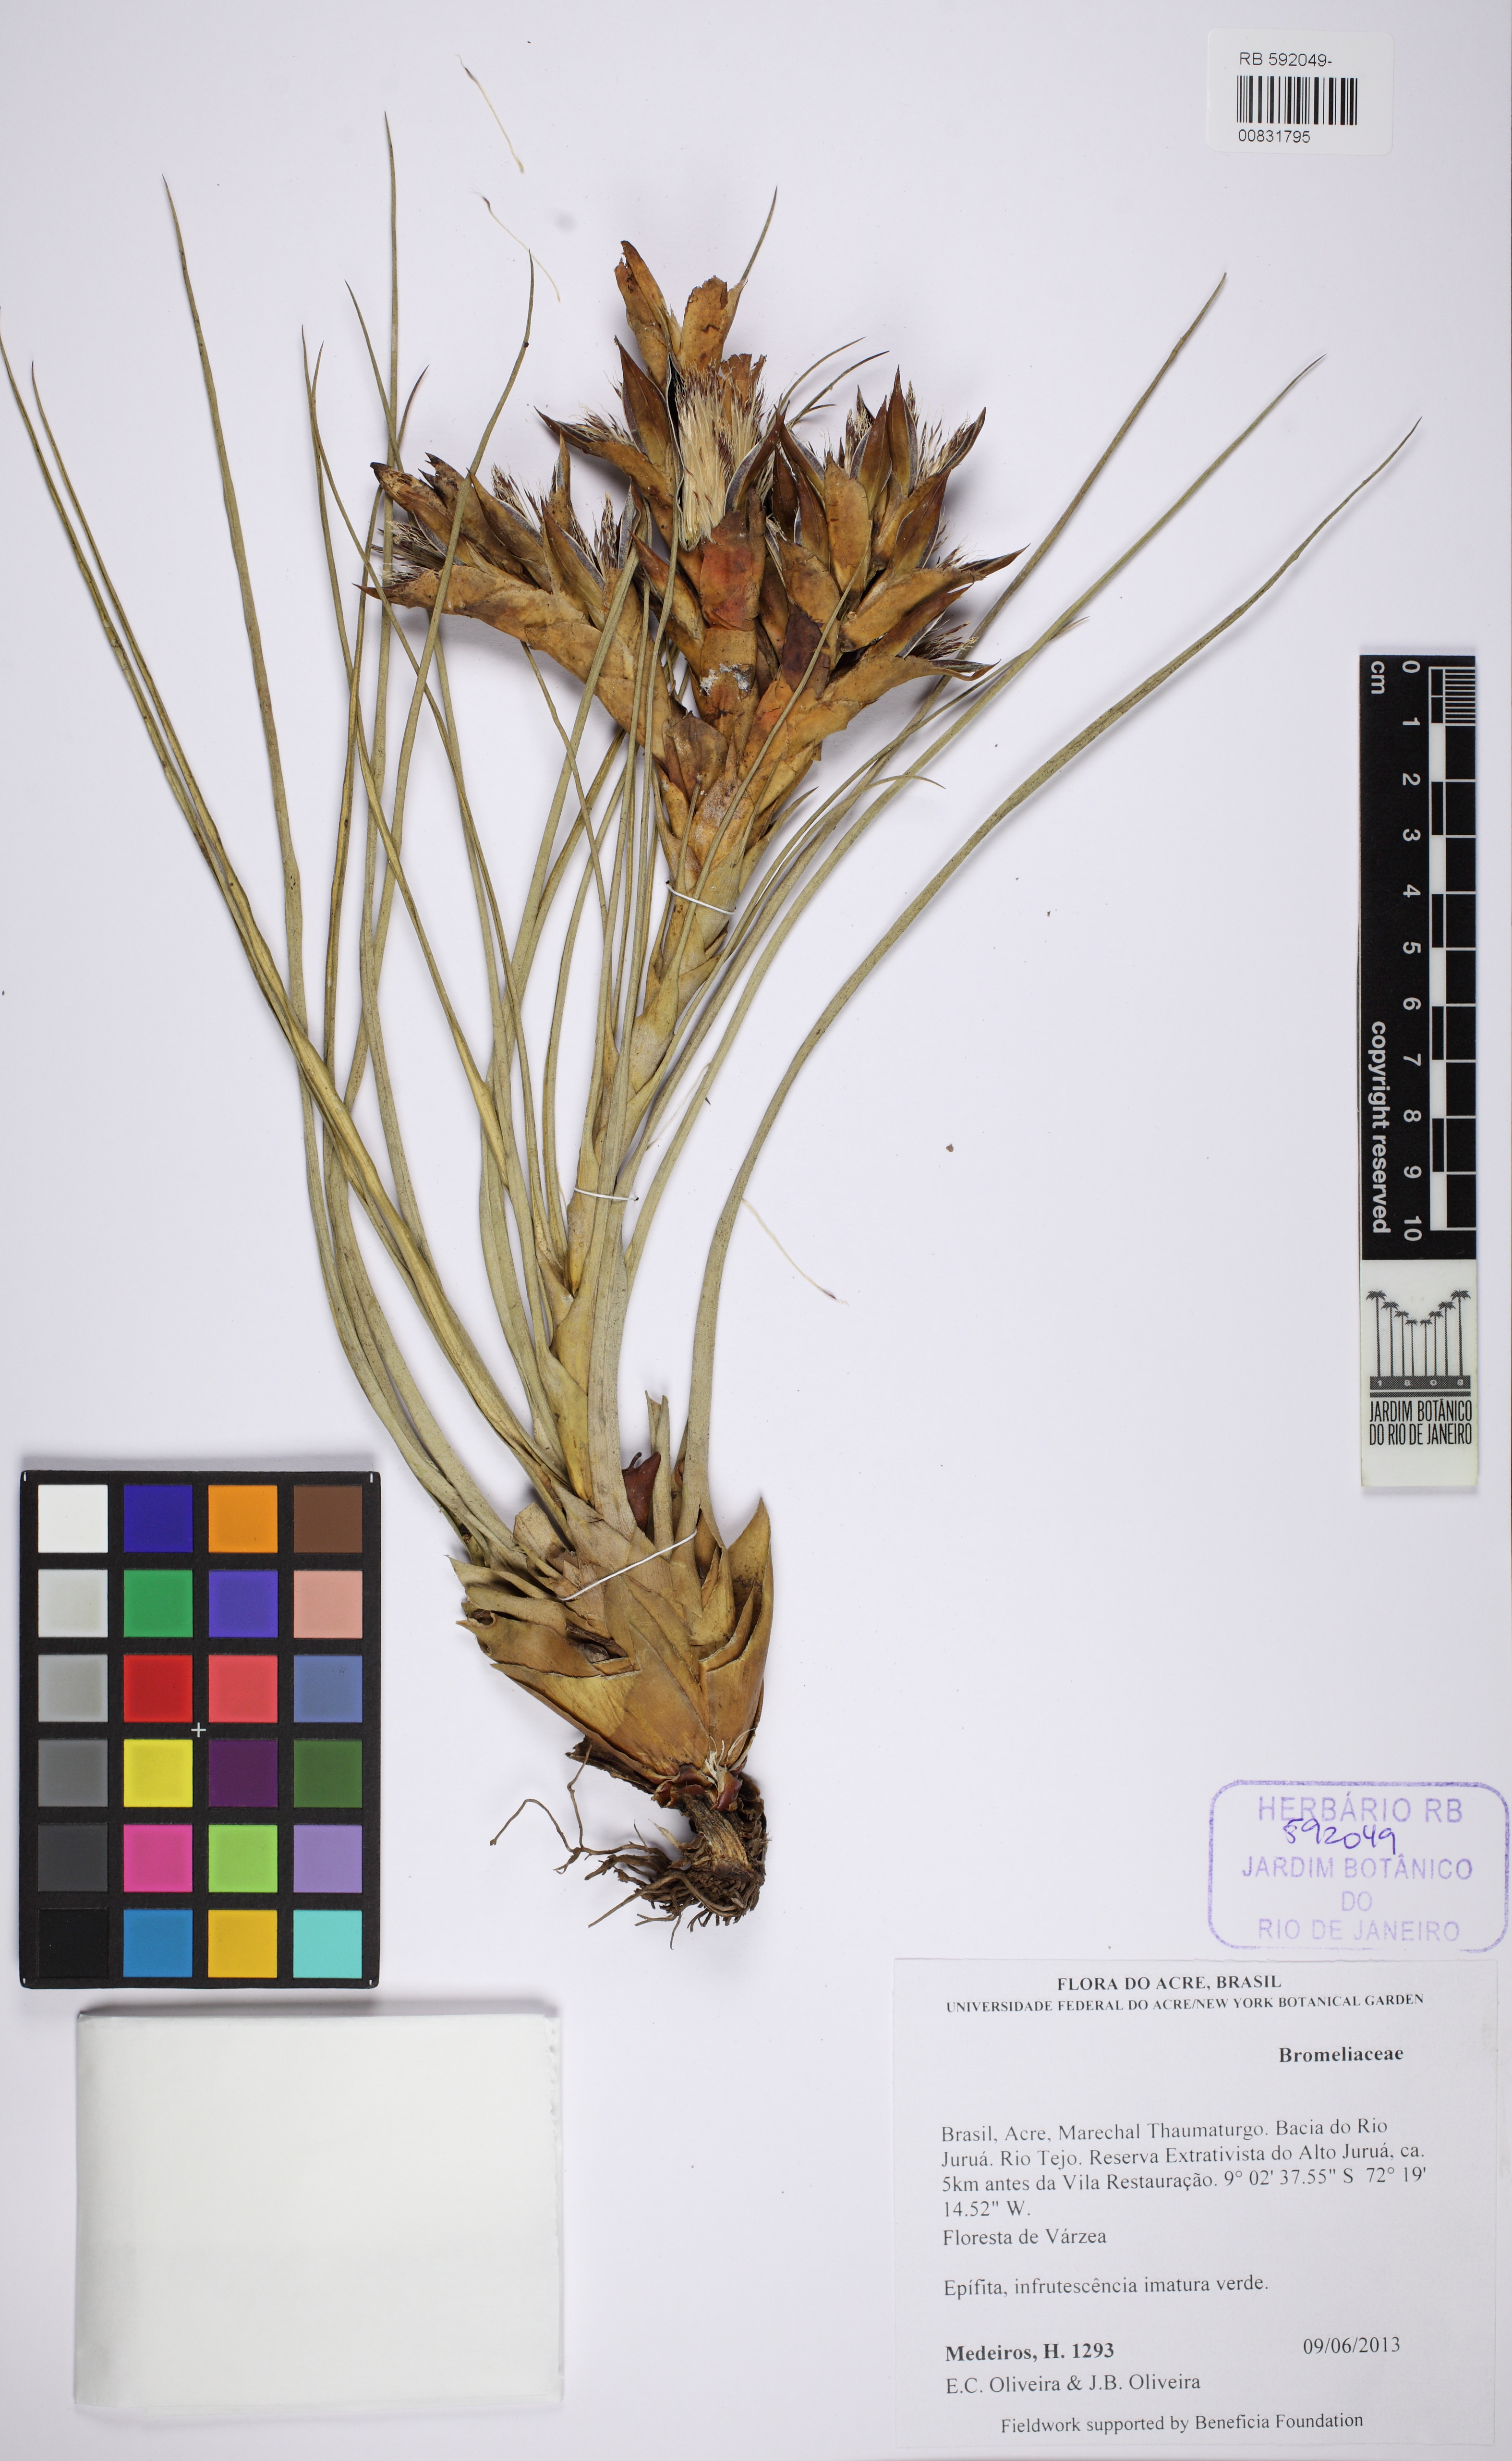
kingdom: Plantae
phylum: Tracheophyta
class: Liliopsida
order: Poales
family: Bromeliaceae
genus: Tillandsia
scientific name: Tillandsia
